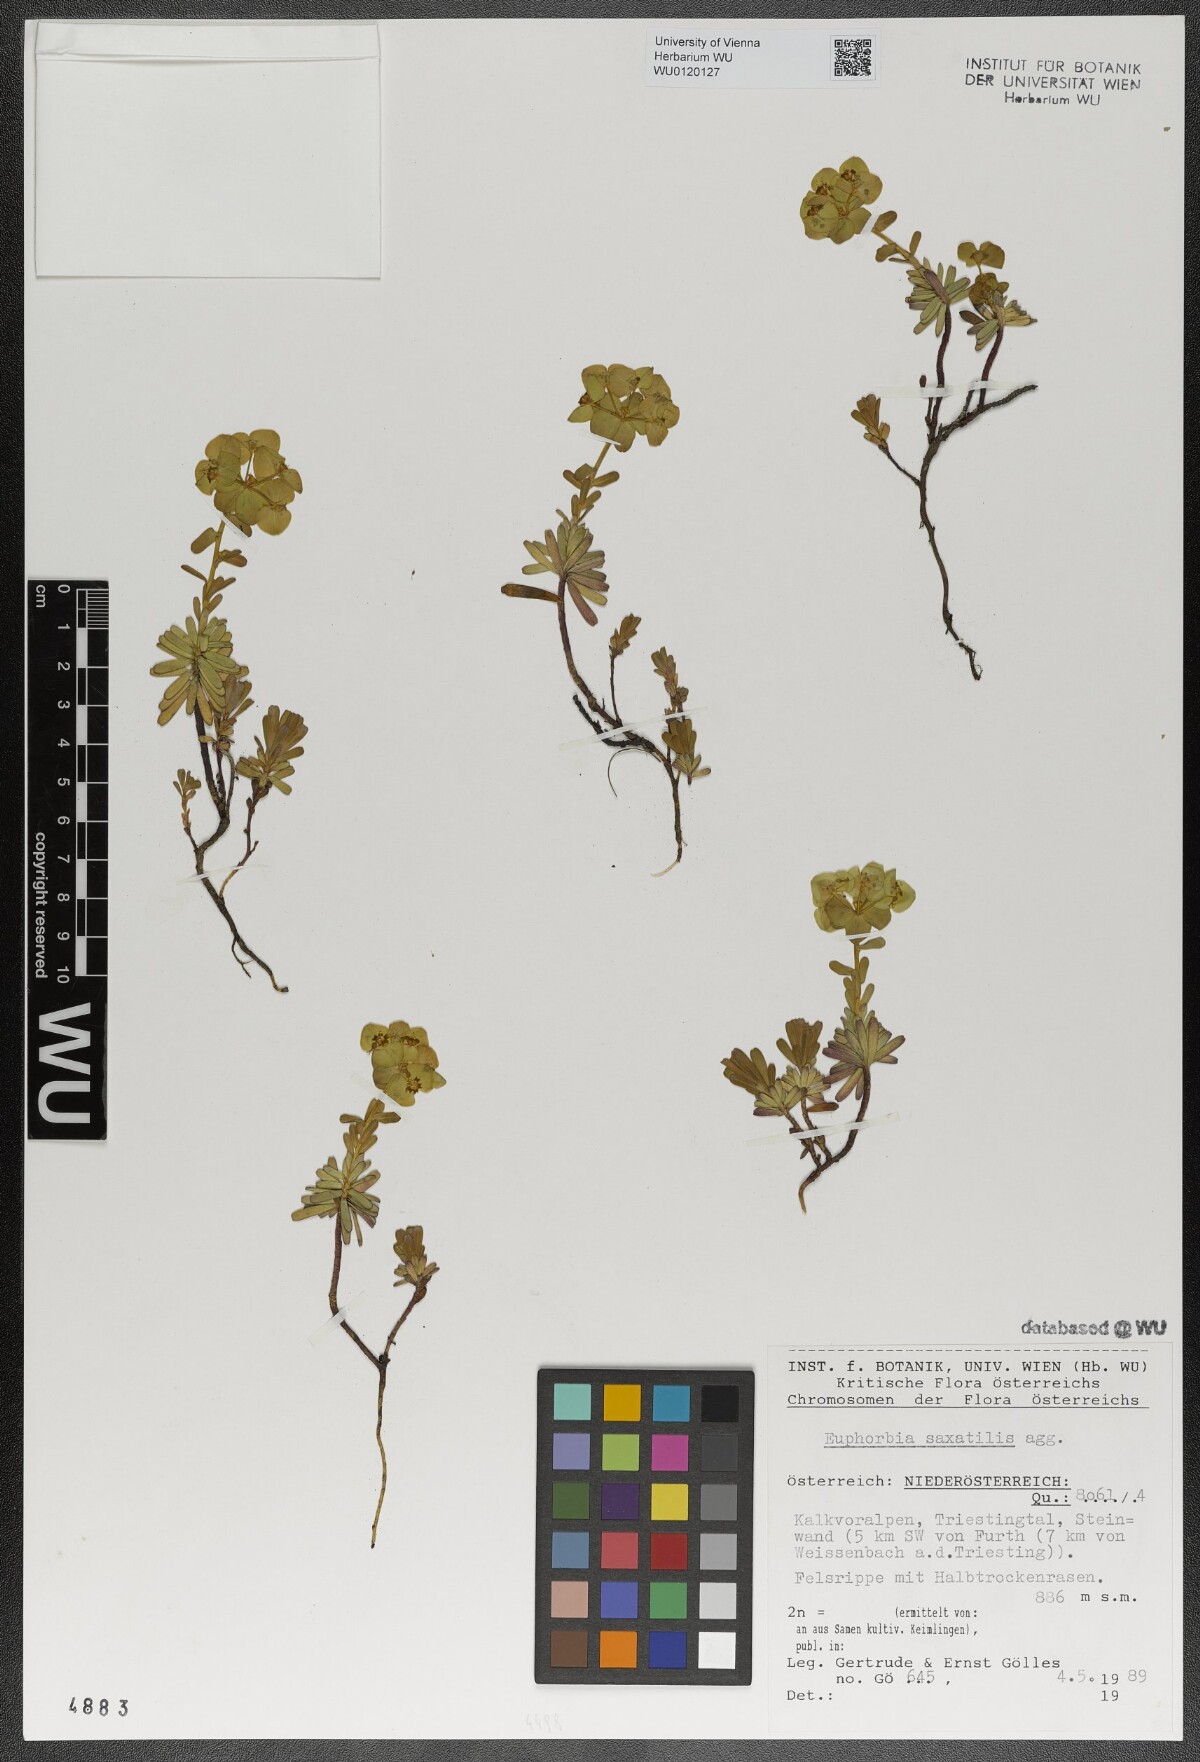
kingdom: Plantae
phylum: Tracheophyta
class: Magnoliopsida
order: Malpighiales
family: Euphorbiaceae
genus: Euphorbia
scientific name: Euphorbia saxatilis
